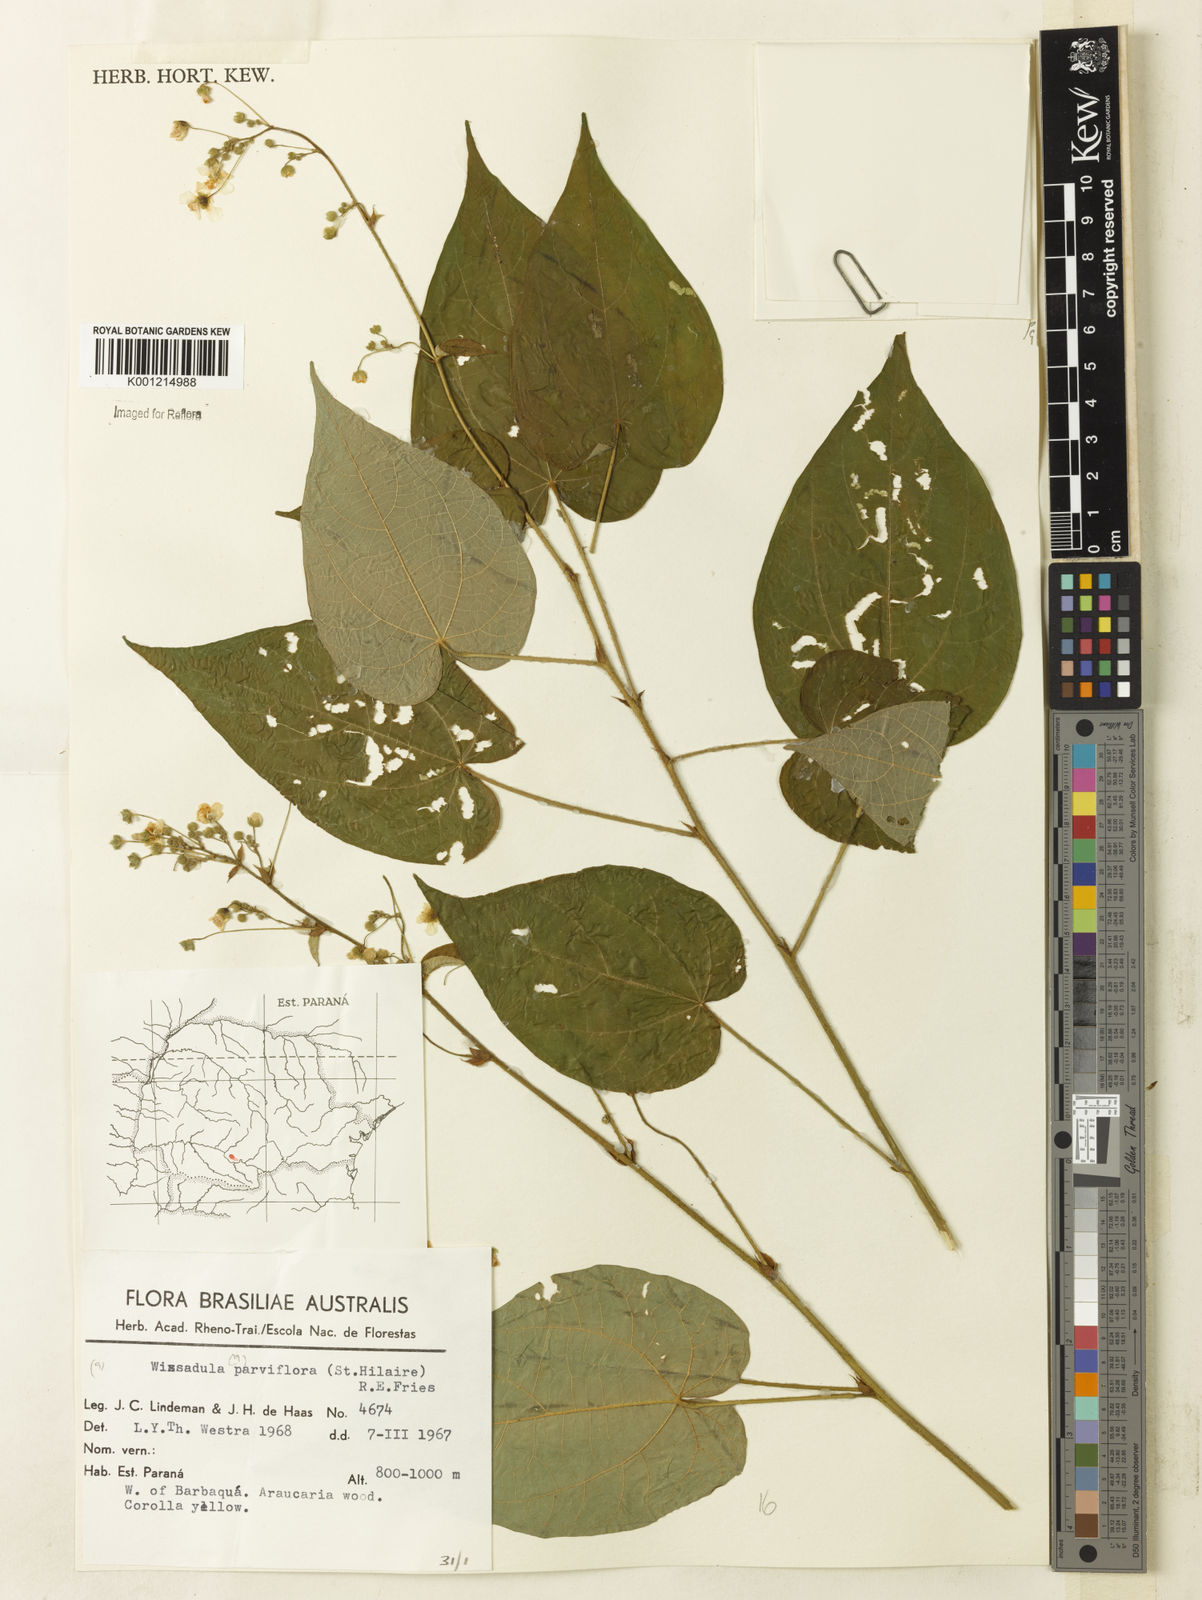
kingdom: Plantae
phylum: Tracheophyta
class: Magnoliopsida
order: Malvales
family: Malvaceae
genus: Wissadula
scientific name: Wissadula parviflora
